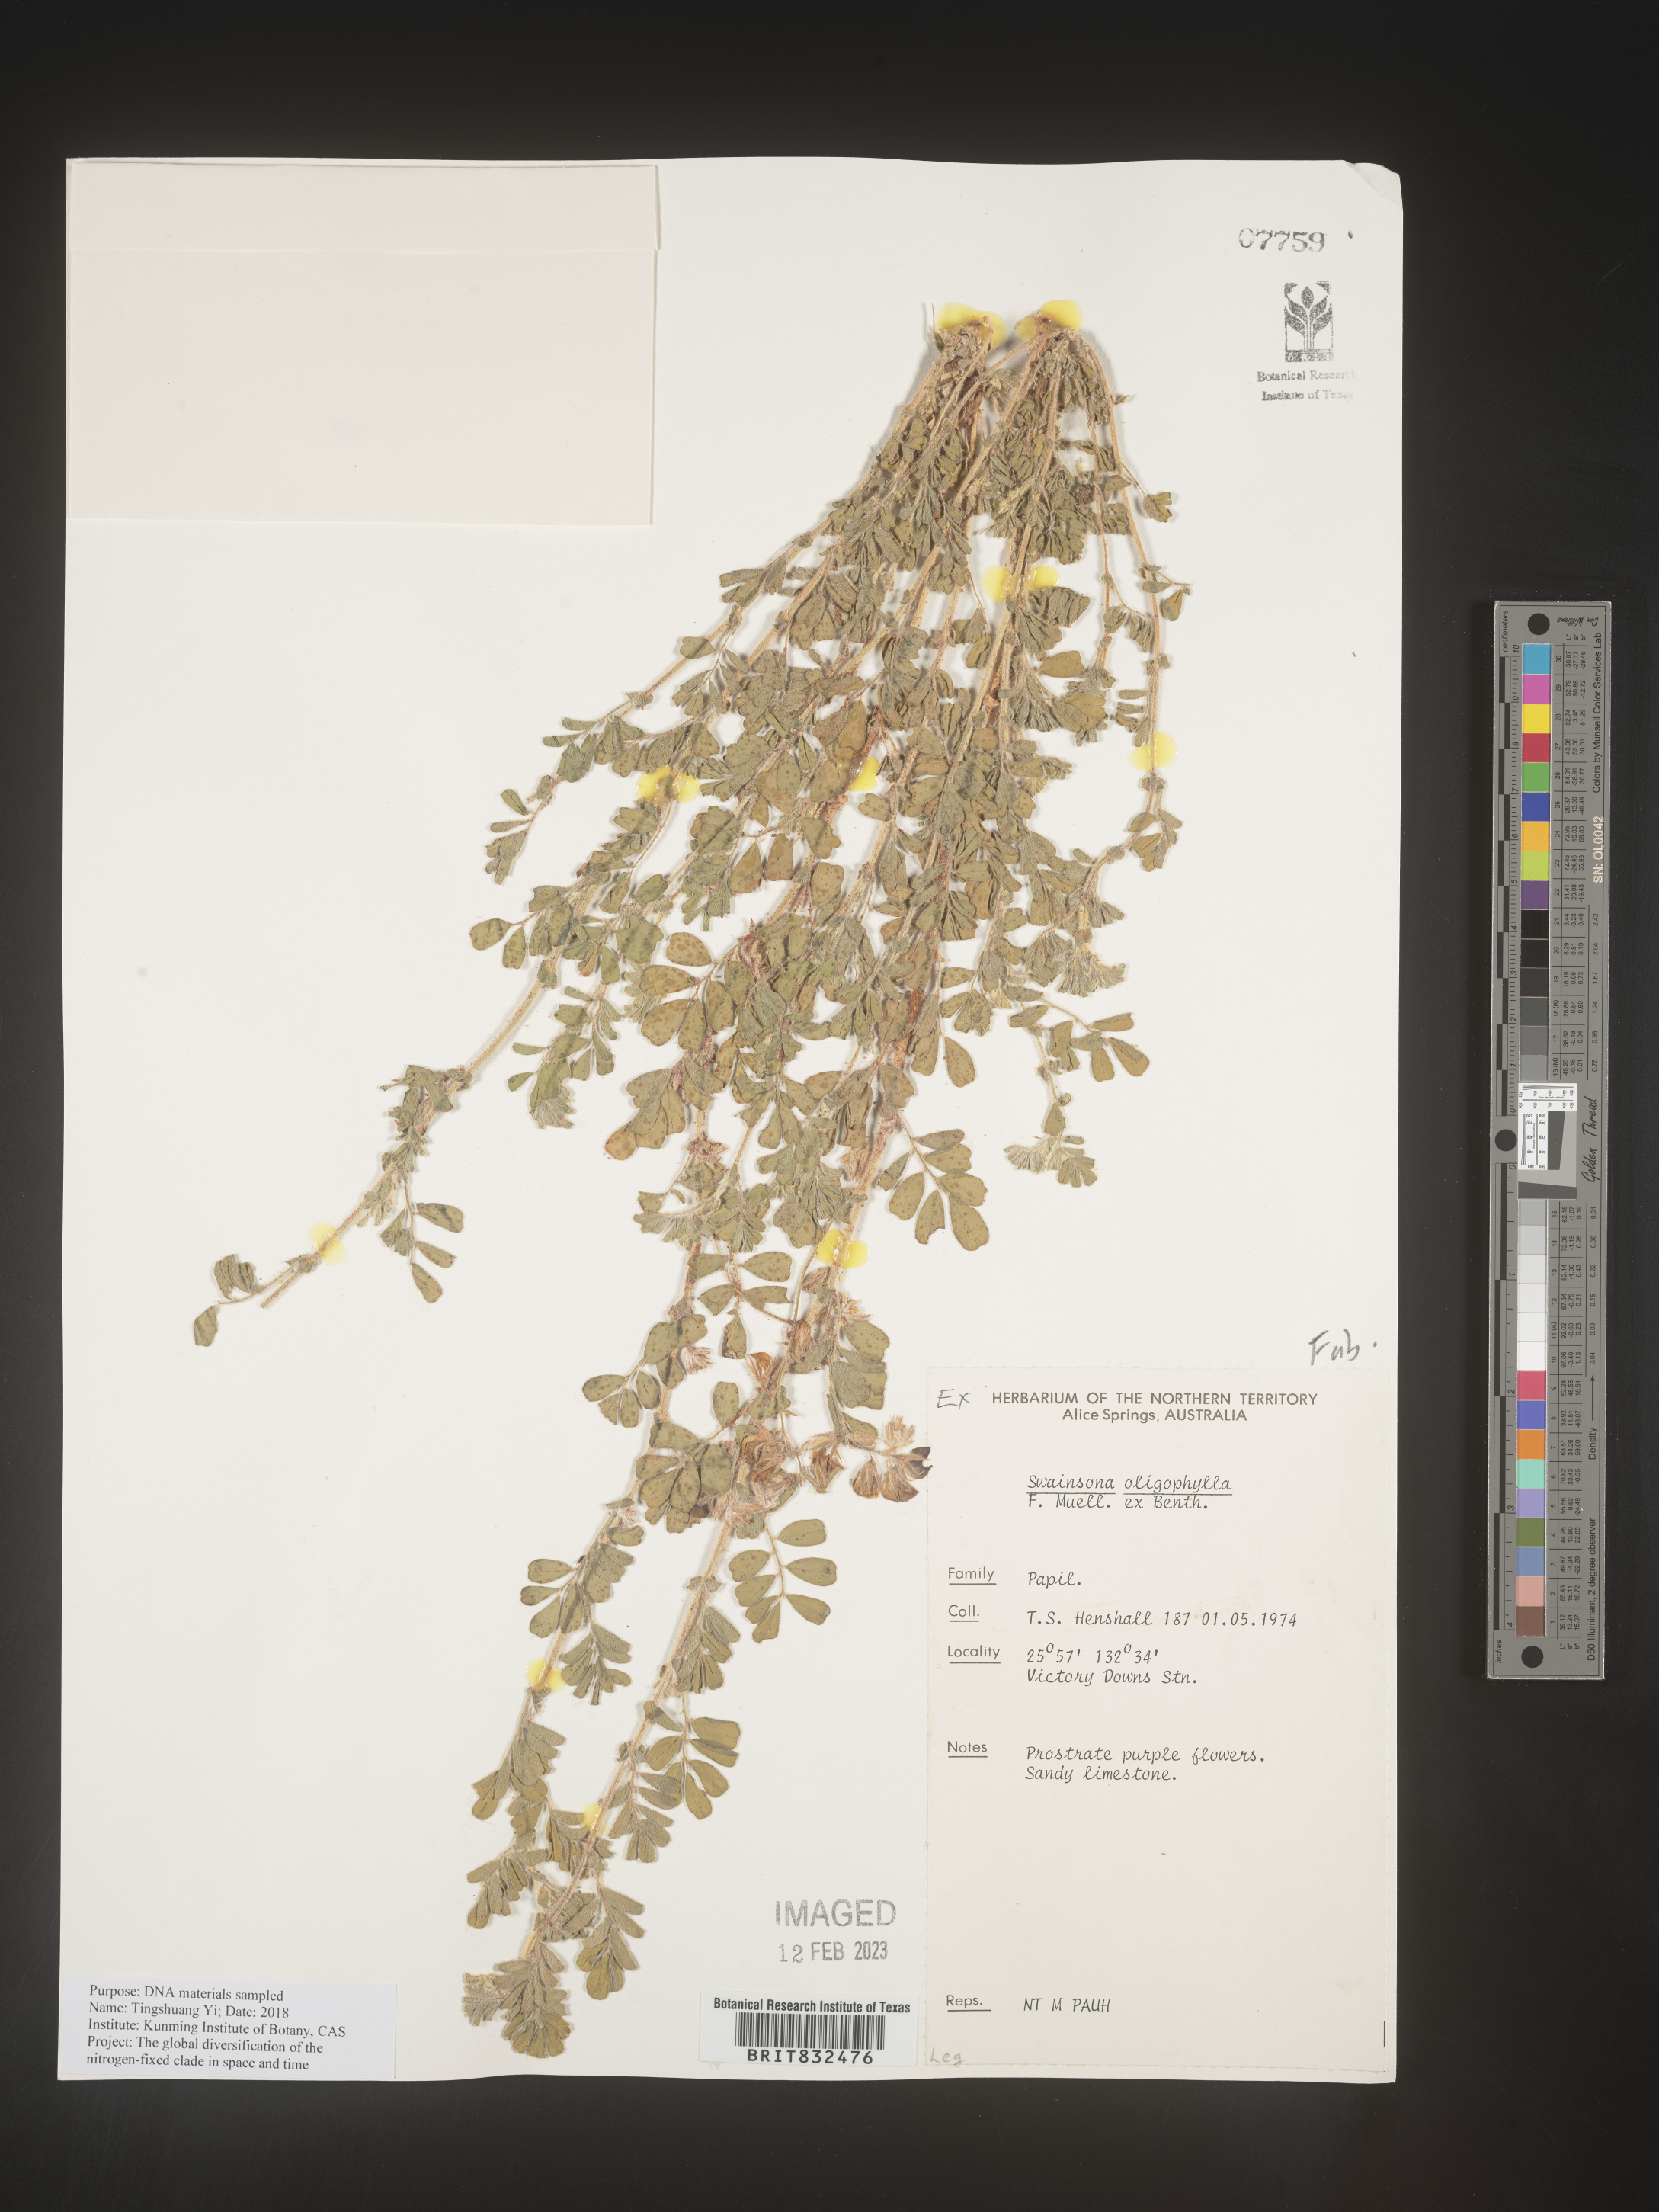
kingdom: Plantae
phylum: Tracheophyta
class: Magnoliopsida
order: Fabales
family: Fabaceae
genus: Swainsona
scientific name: Swainsona
